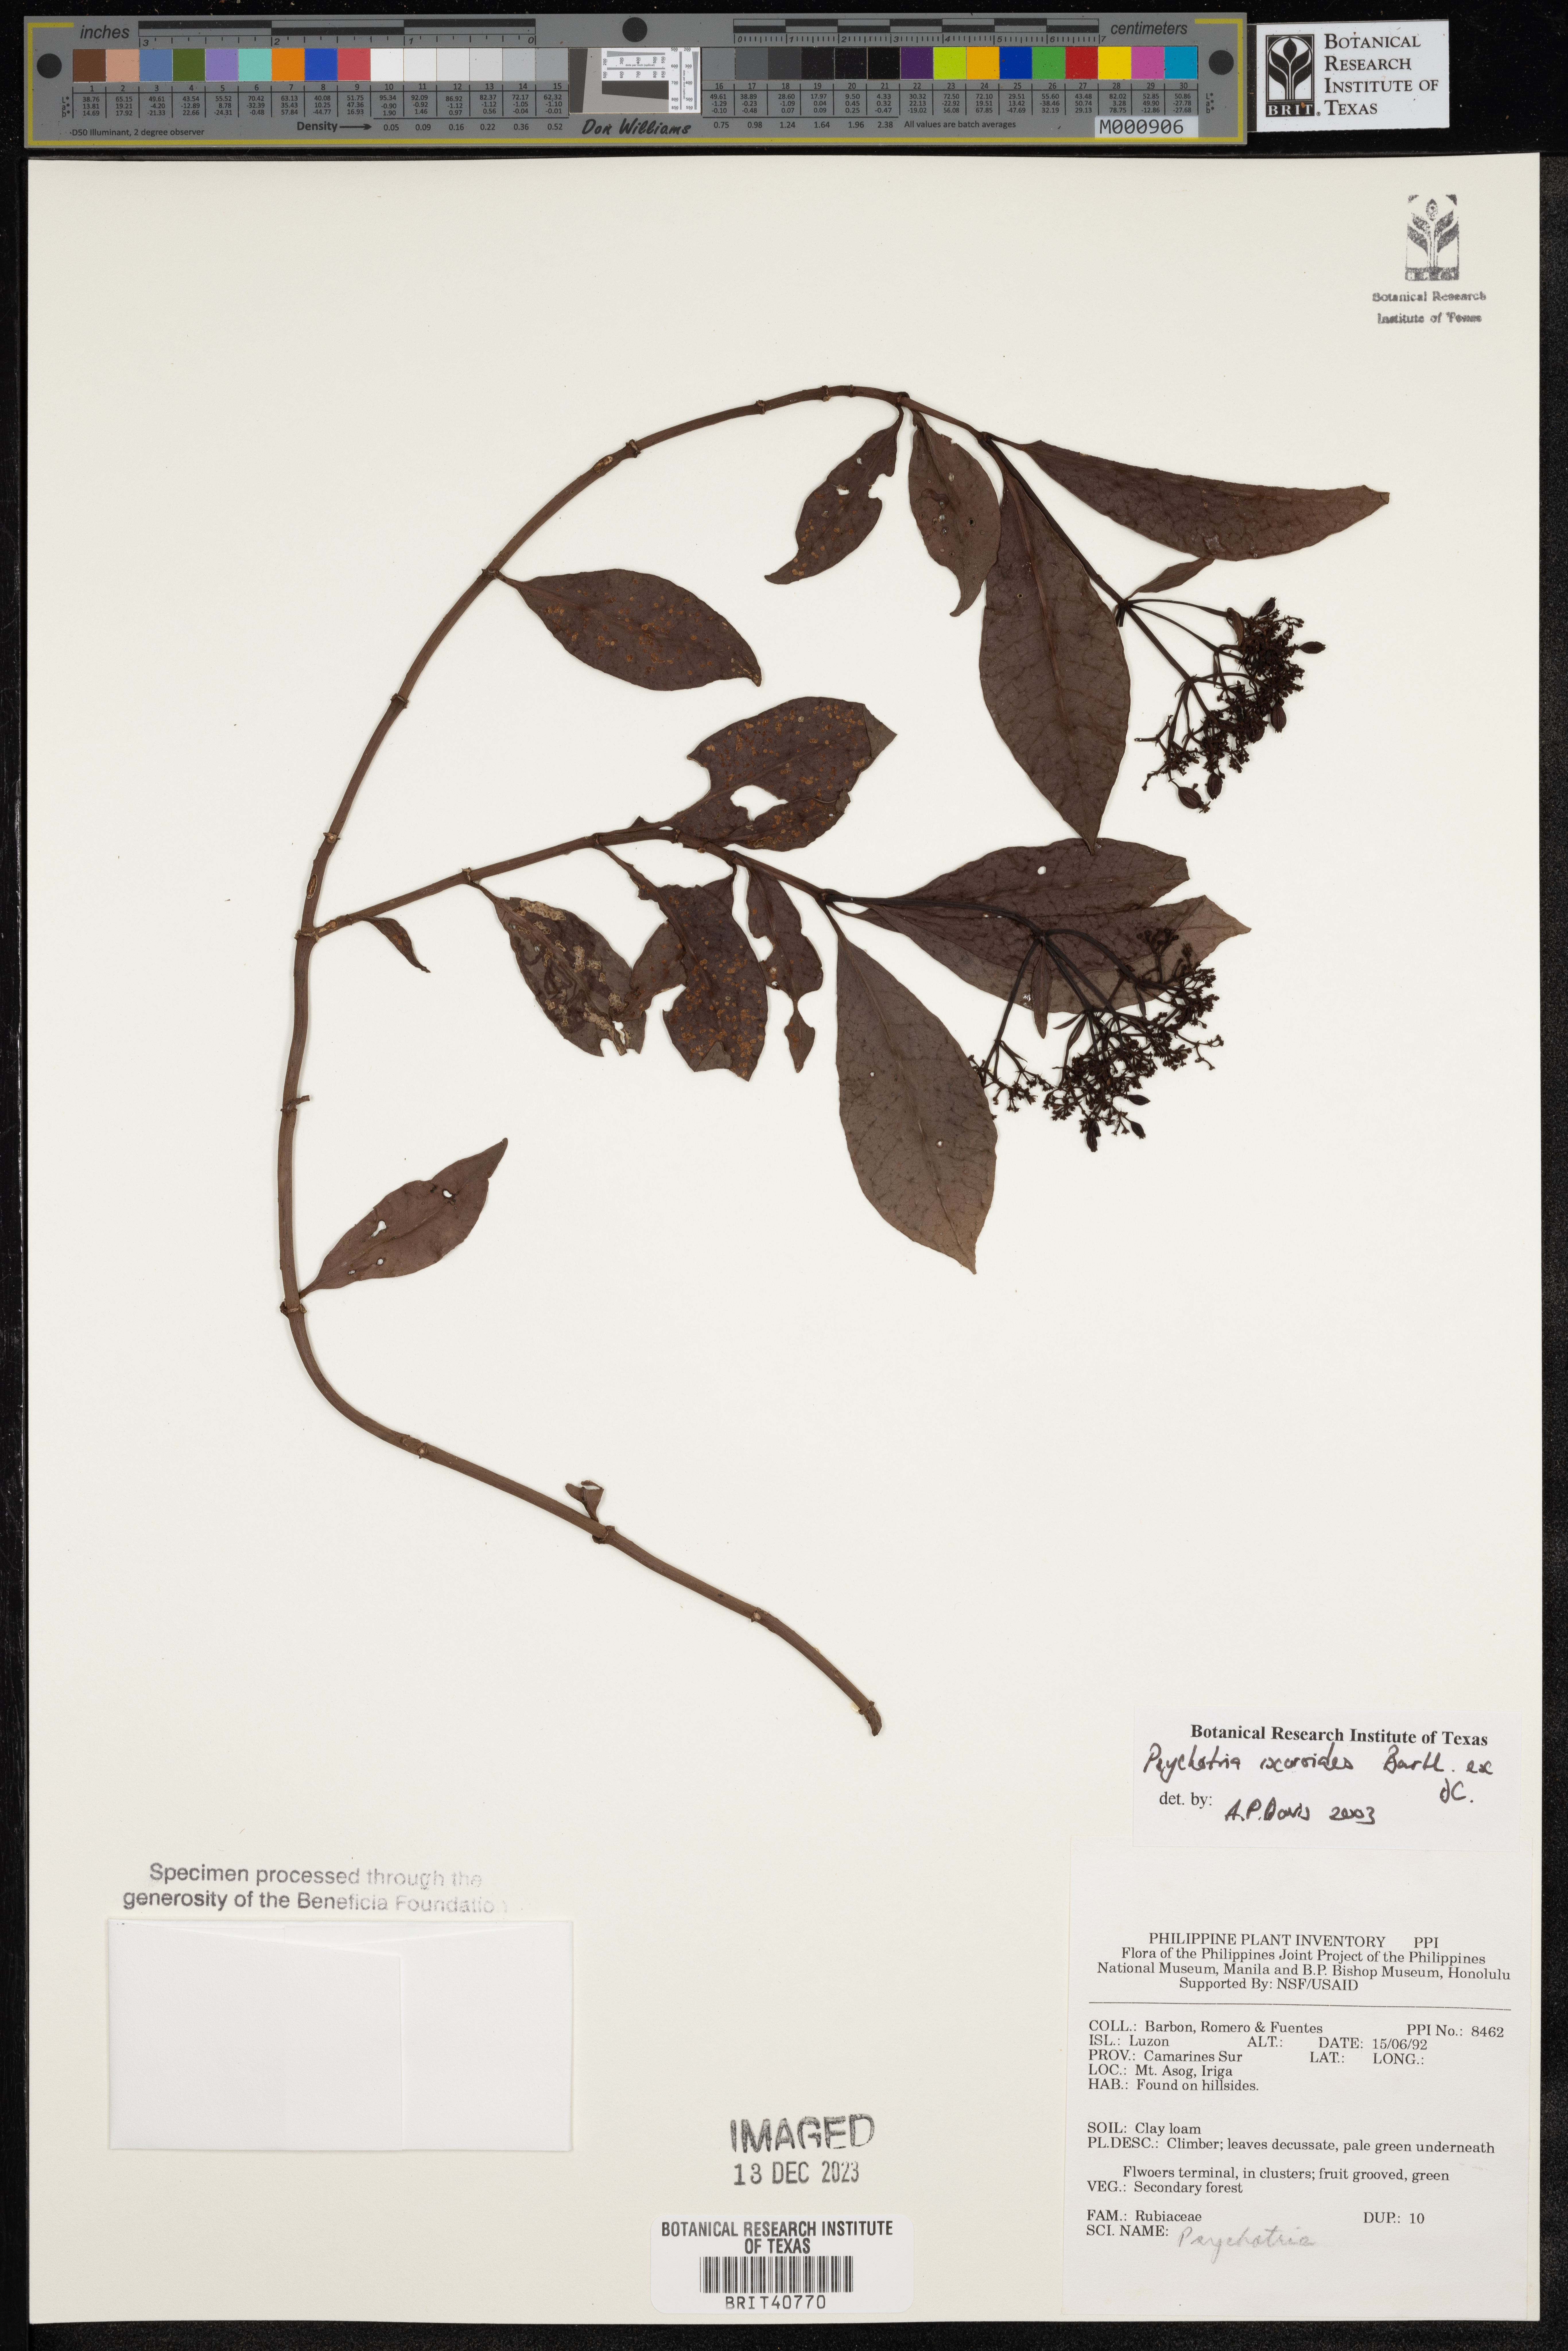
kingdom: Plantae
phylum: Tracheophyta
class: Magnoliopsida
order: Gentianales
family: Rubiaceae
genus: Psychotria
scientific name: Psychotria ixoroides
